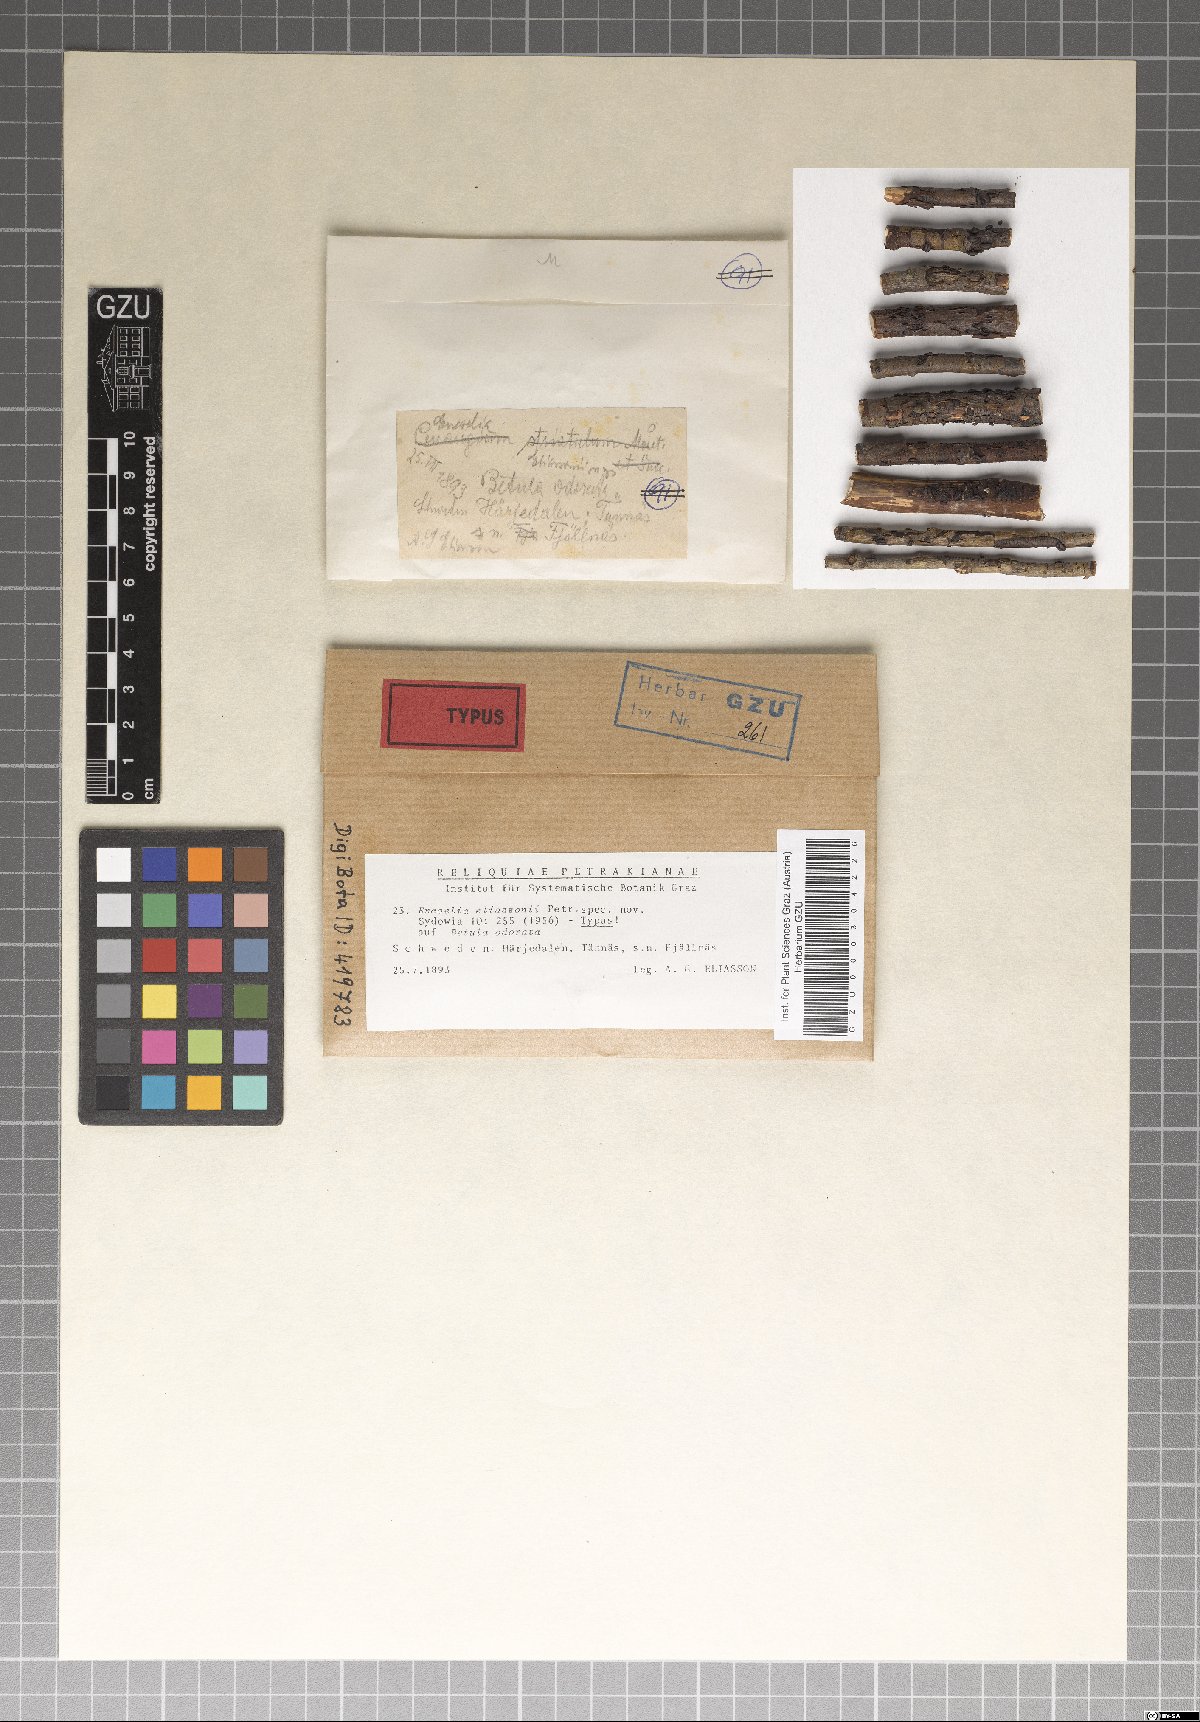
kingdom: Fungi
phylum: Ascomycota
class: Leotiomycetes
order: Helotiales
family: Cenangiaceae
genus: Encoelia
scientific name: Encoelia eliassonii
